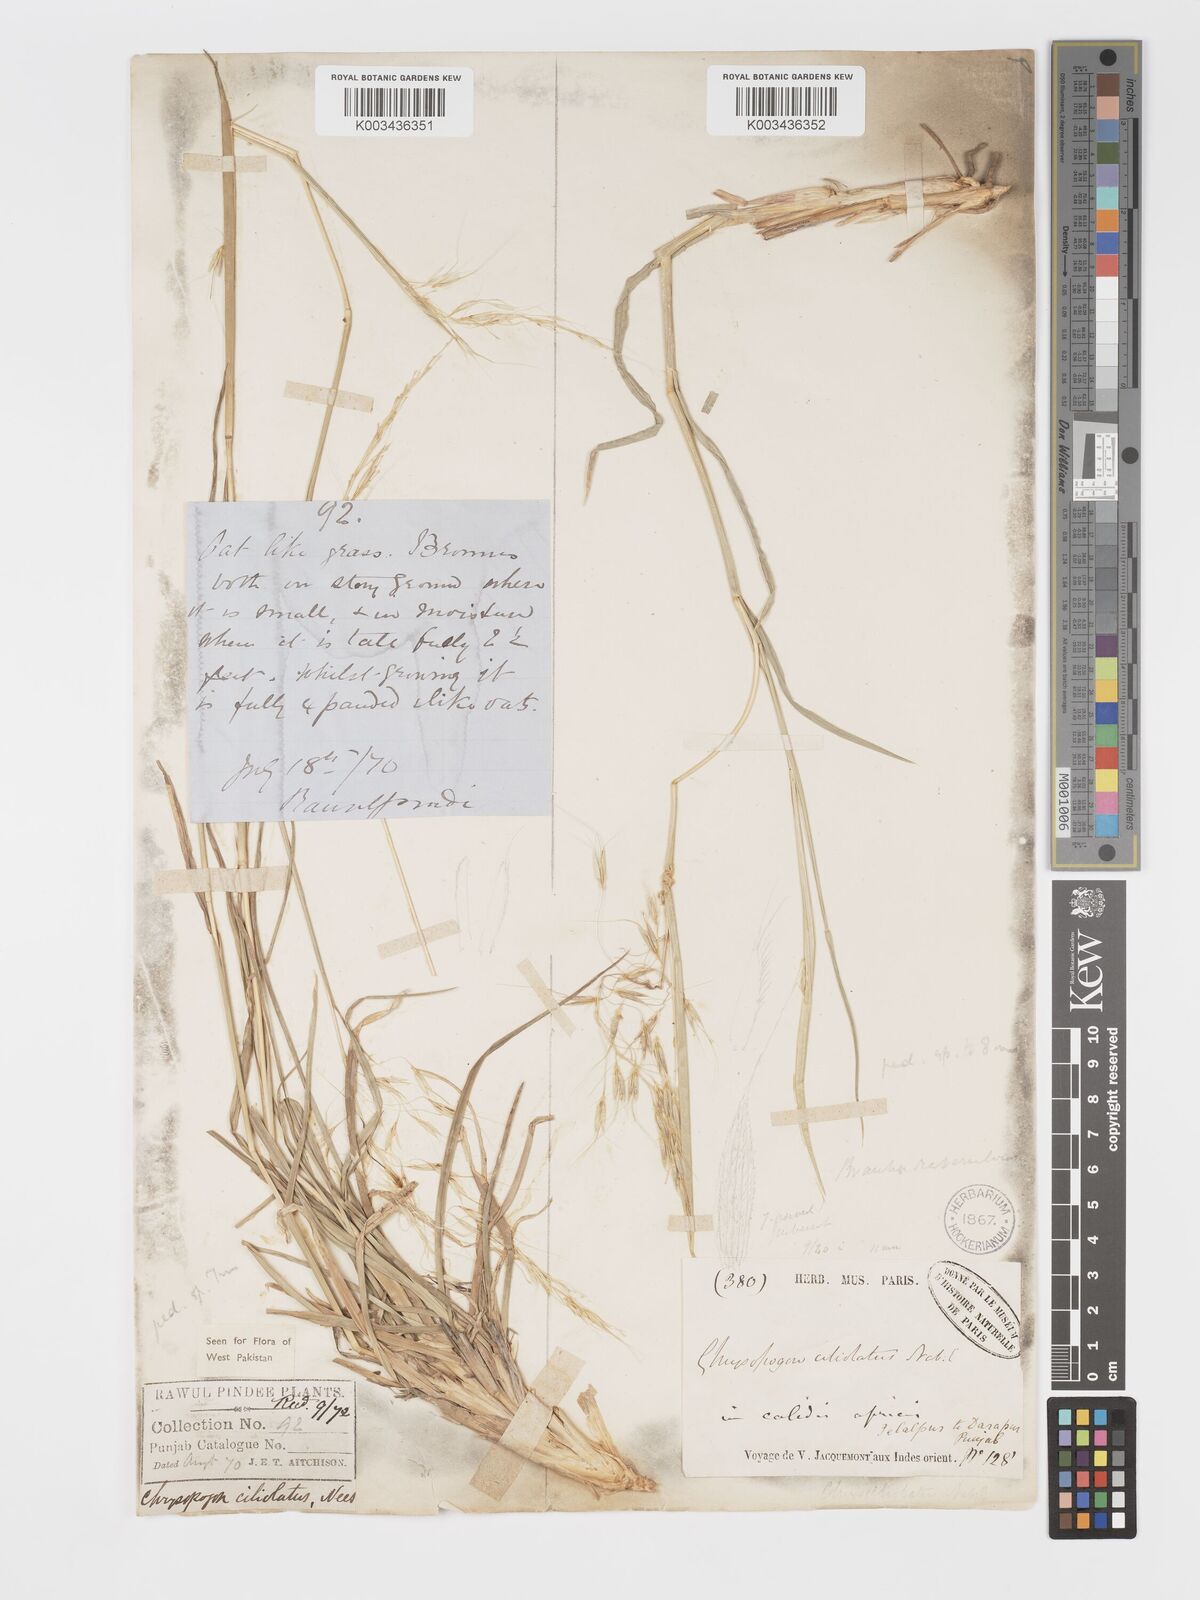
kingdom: Plantae
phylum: Tracheophyta
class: Liliopsida
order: Poales
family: Poaceae
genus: Chrysopogon
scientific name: Chrysopogon serrulatus
